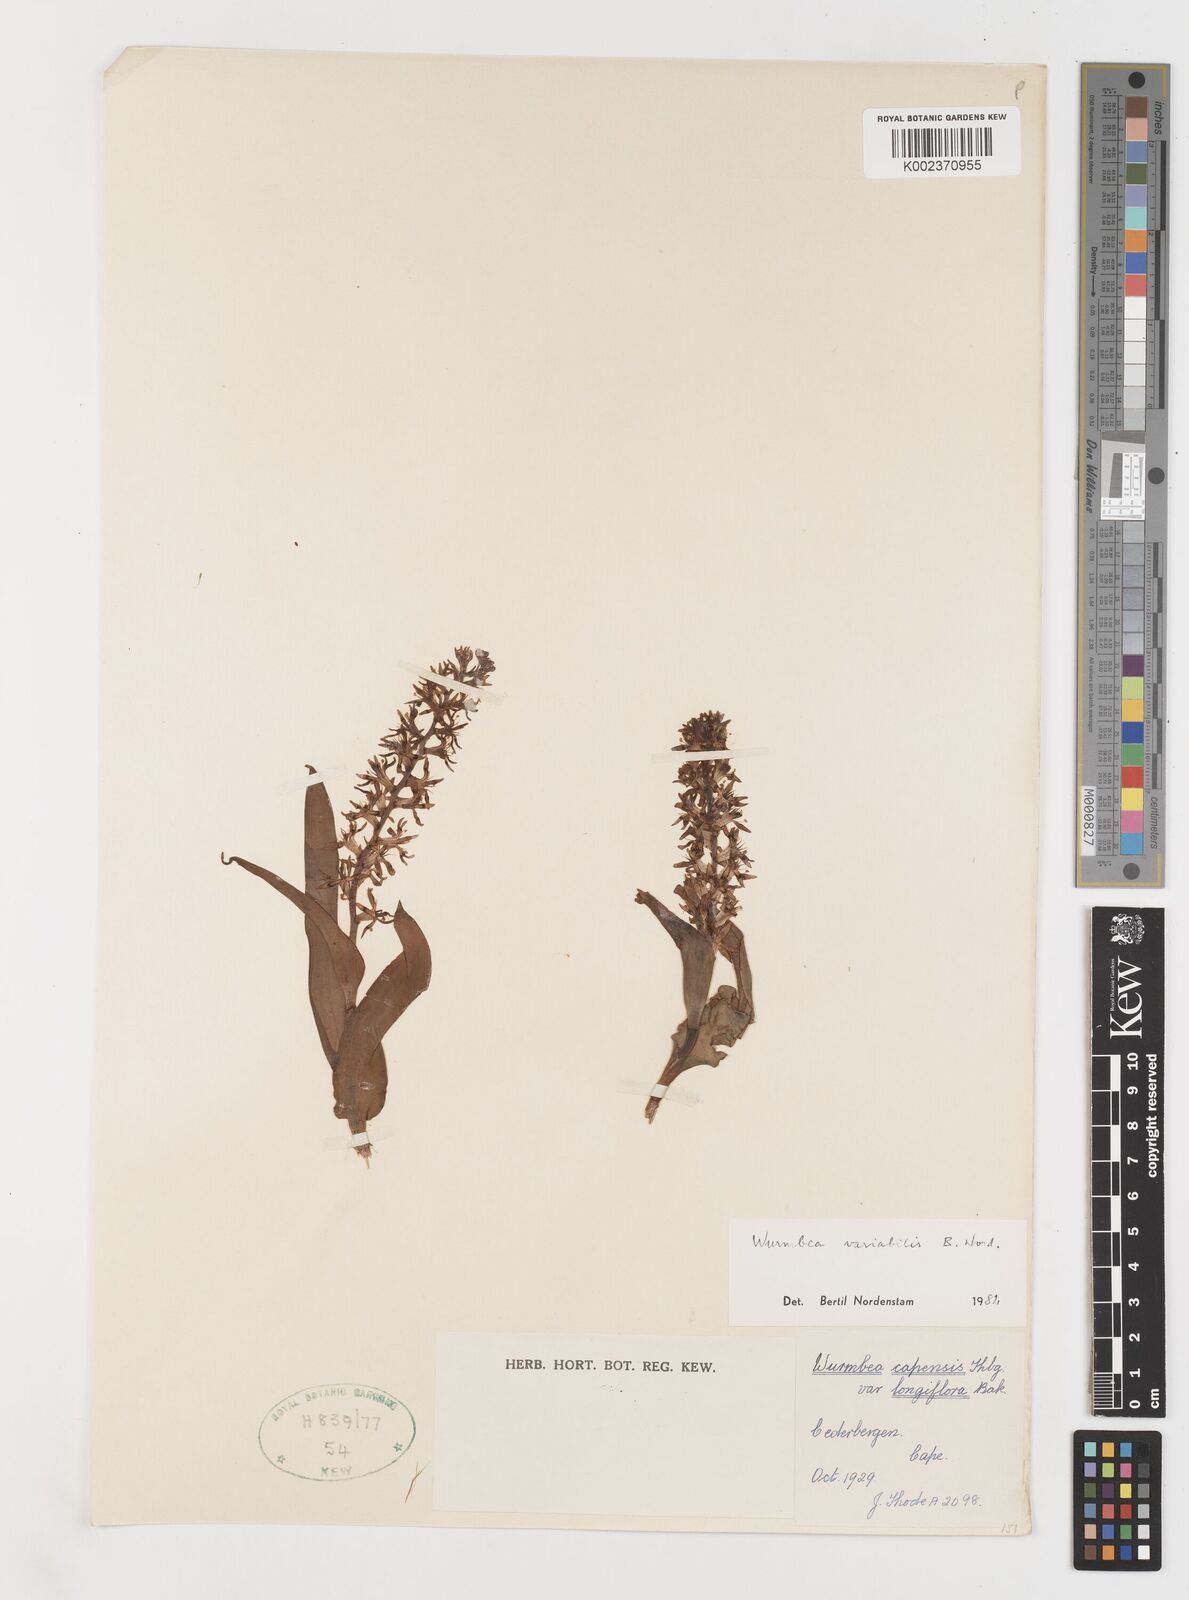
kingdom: Plantae
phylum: Tracheophyta
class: Liliopsida
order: Liliales
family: Colchicaceae
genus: Wurmbea
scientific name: Wurmbea variabilis
